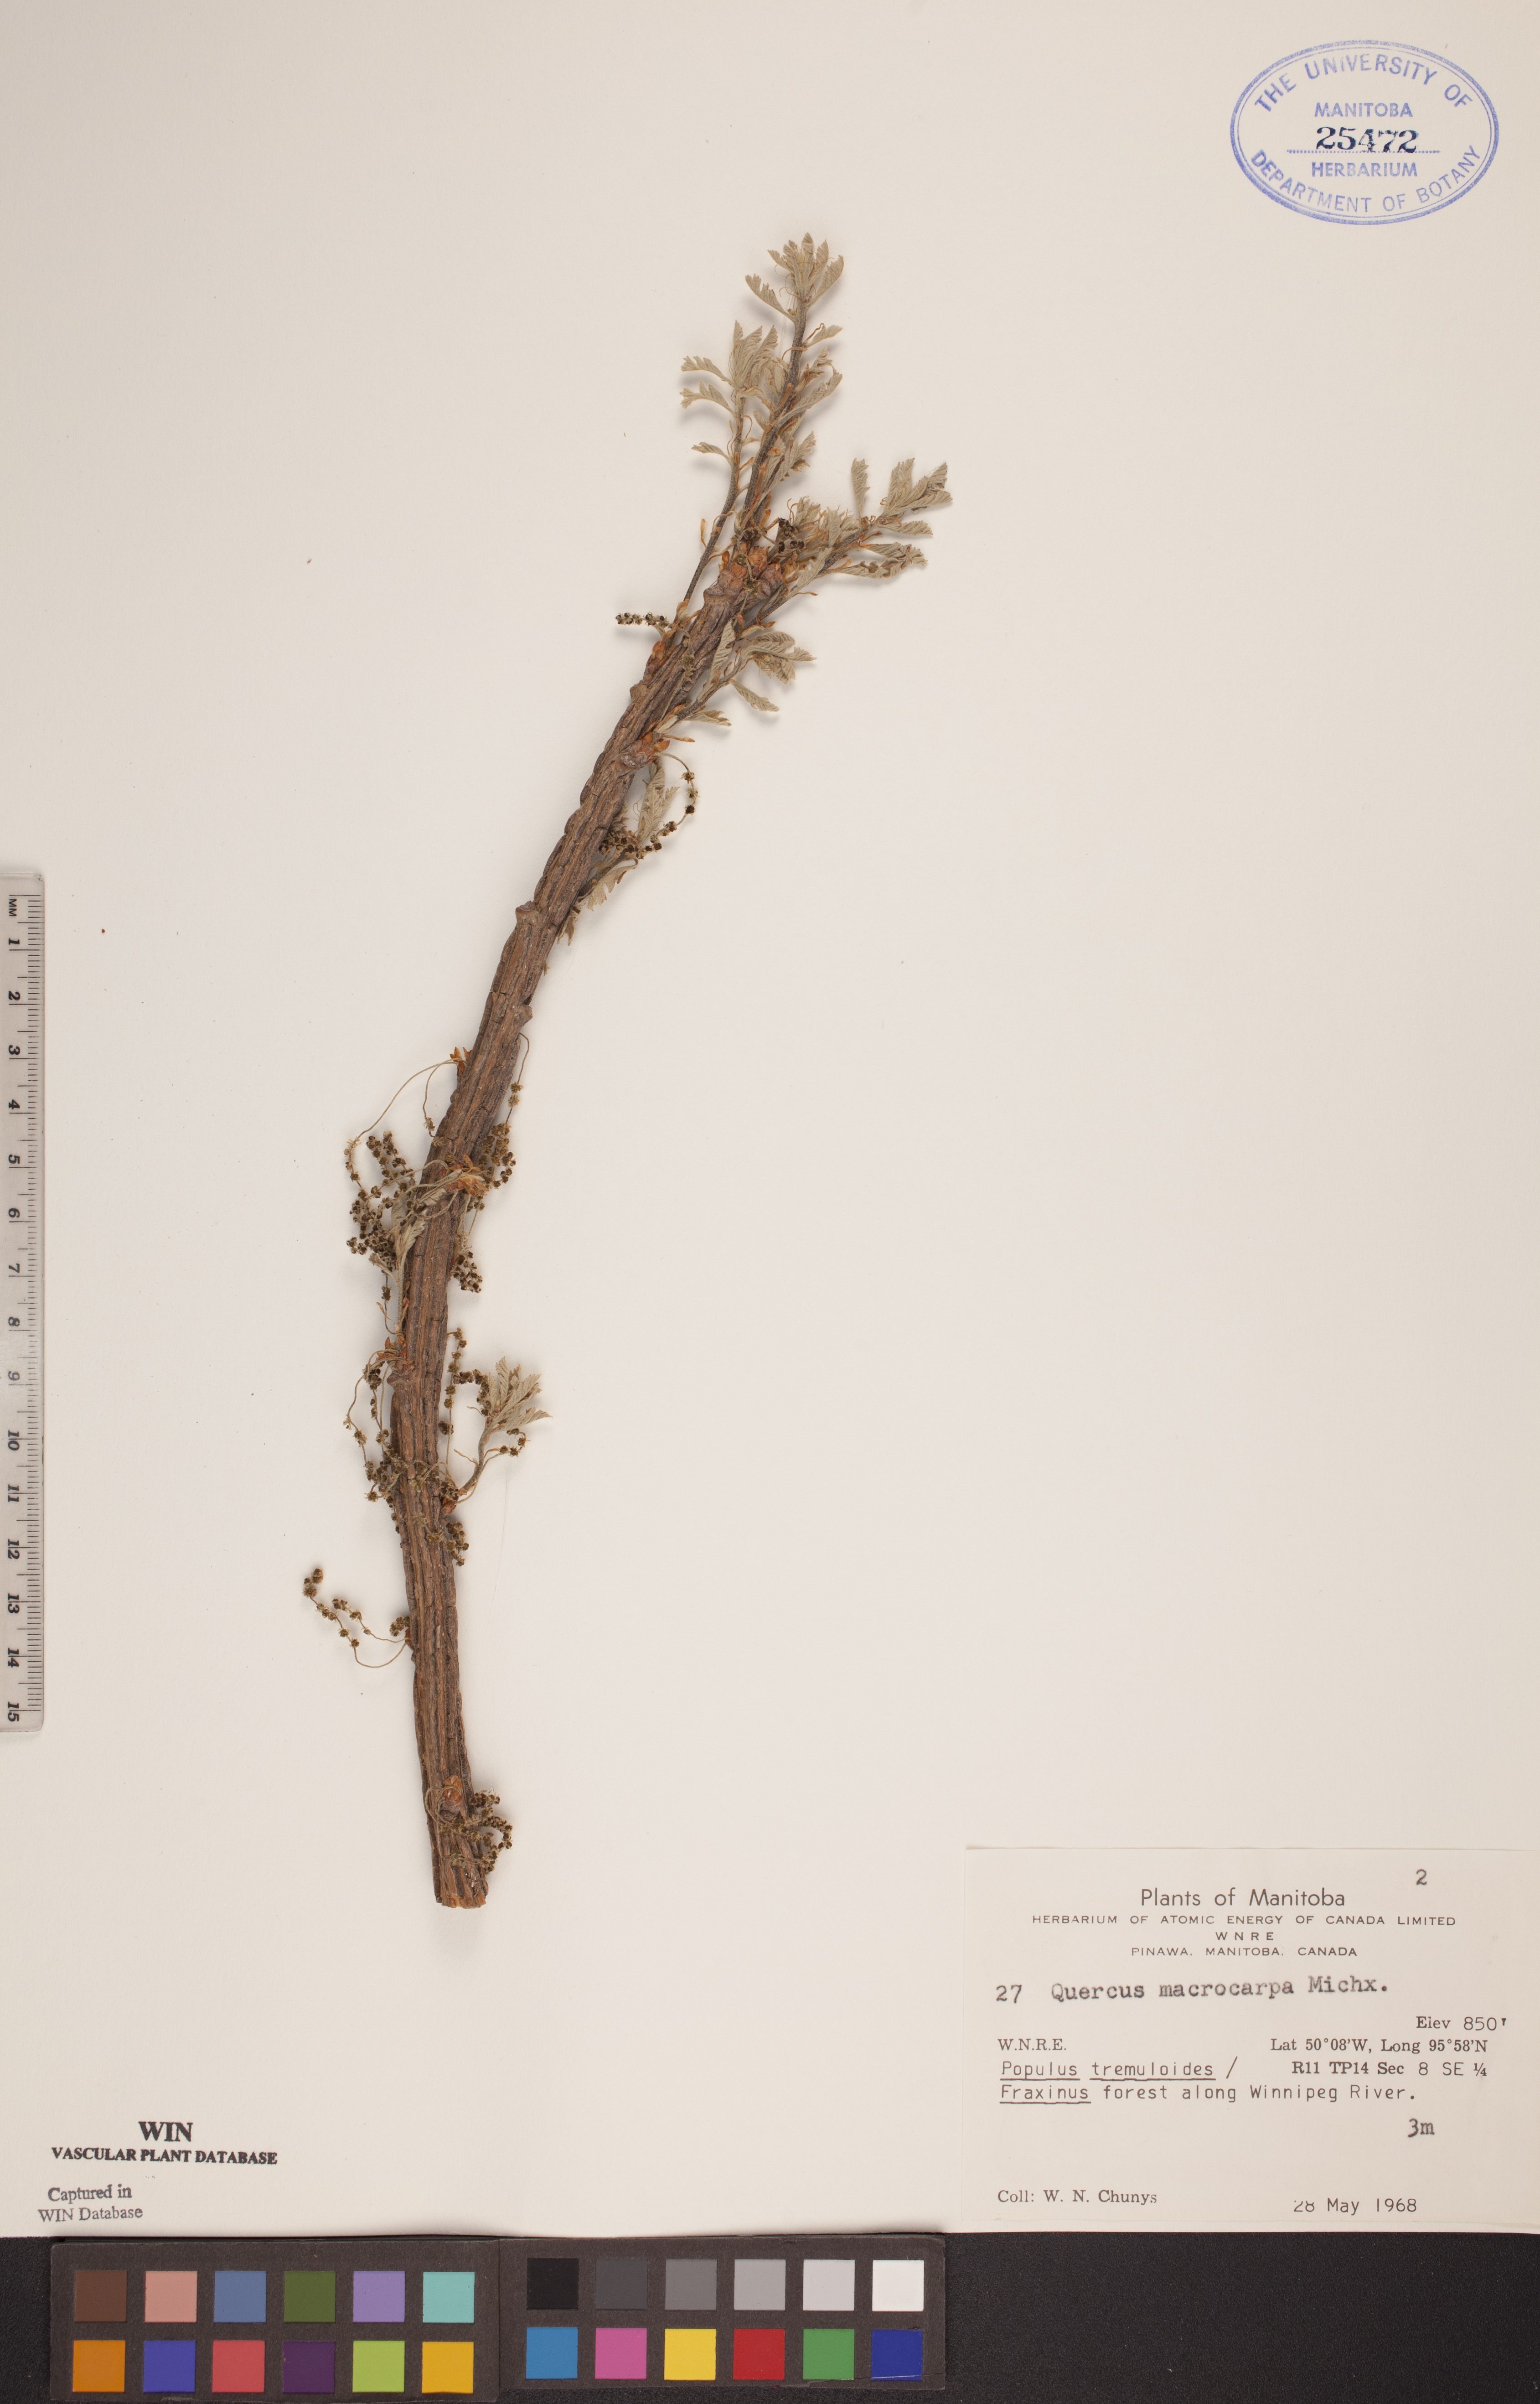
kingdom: Plantae
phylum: Tracheophyta
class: Magnoliopsida
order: Fagales
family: Fagaceae
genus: Quercus
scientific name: Quercus macrocarpa
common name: Bur oak
